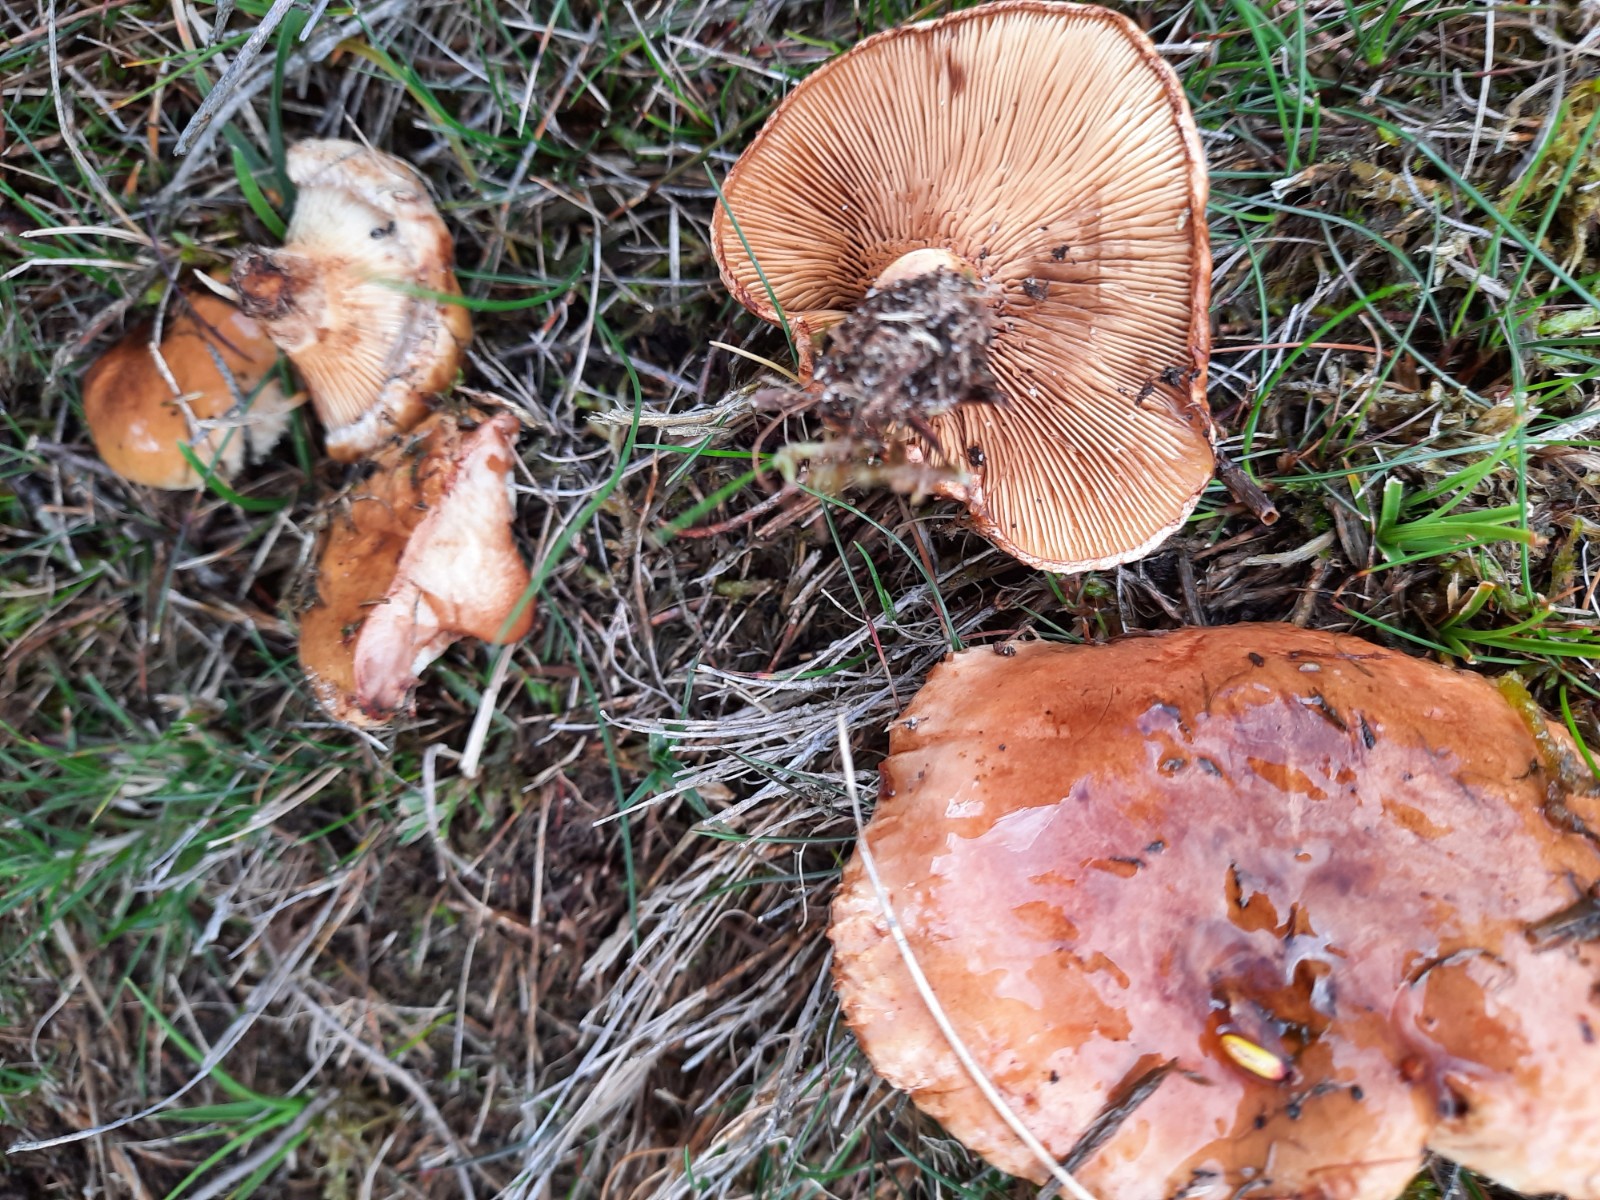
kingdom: Fungi
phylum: Basidiomycota
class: Agaricomycetes
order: Boletales
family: Paxillaceae
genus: Paxillus
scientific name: Paxillus ammoniavirescens
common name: olivensporet netbladhat
